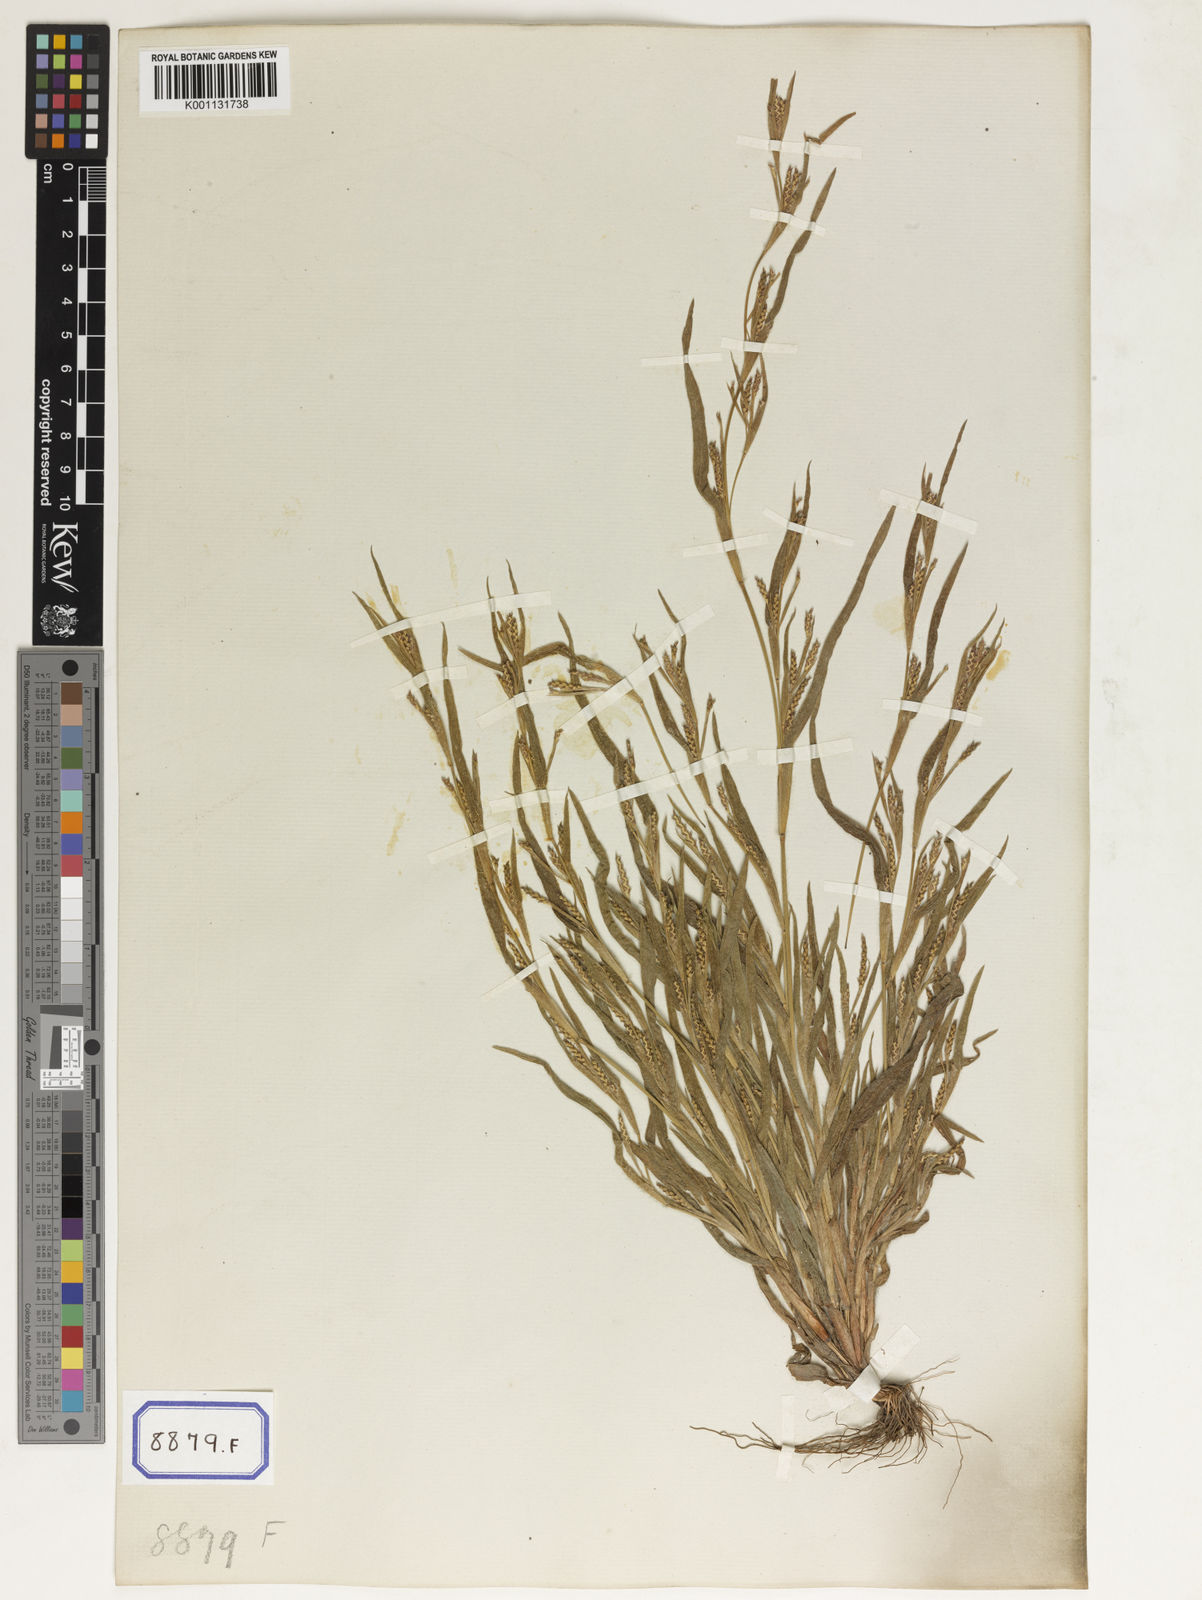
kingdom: Plantae
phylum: Tracheophyta
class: Liliopsida
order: Poales
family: Poaceae
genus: Manisuris
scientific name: Manisuris
